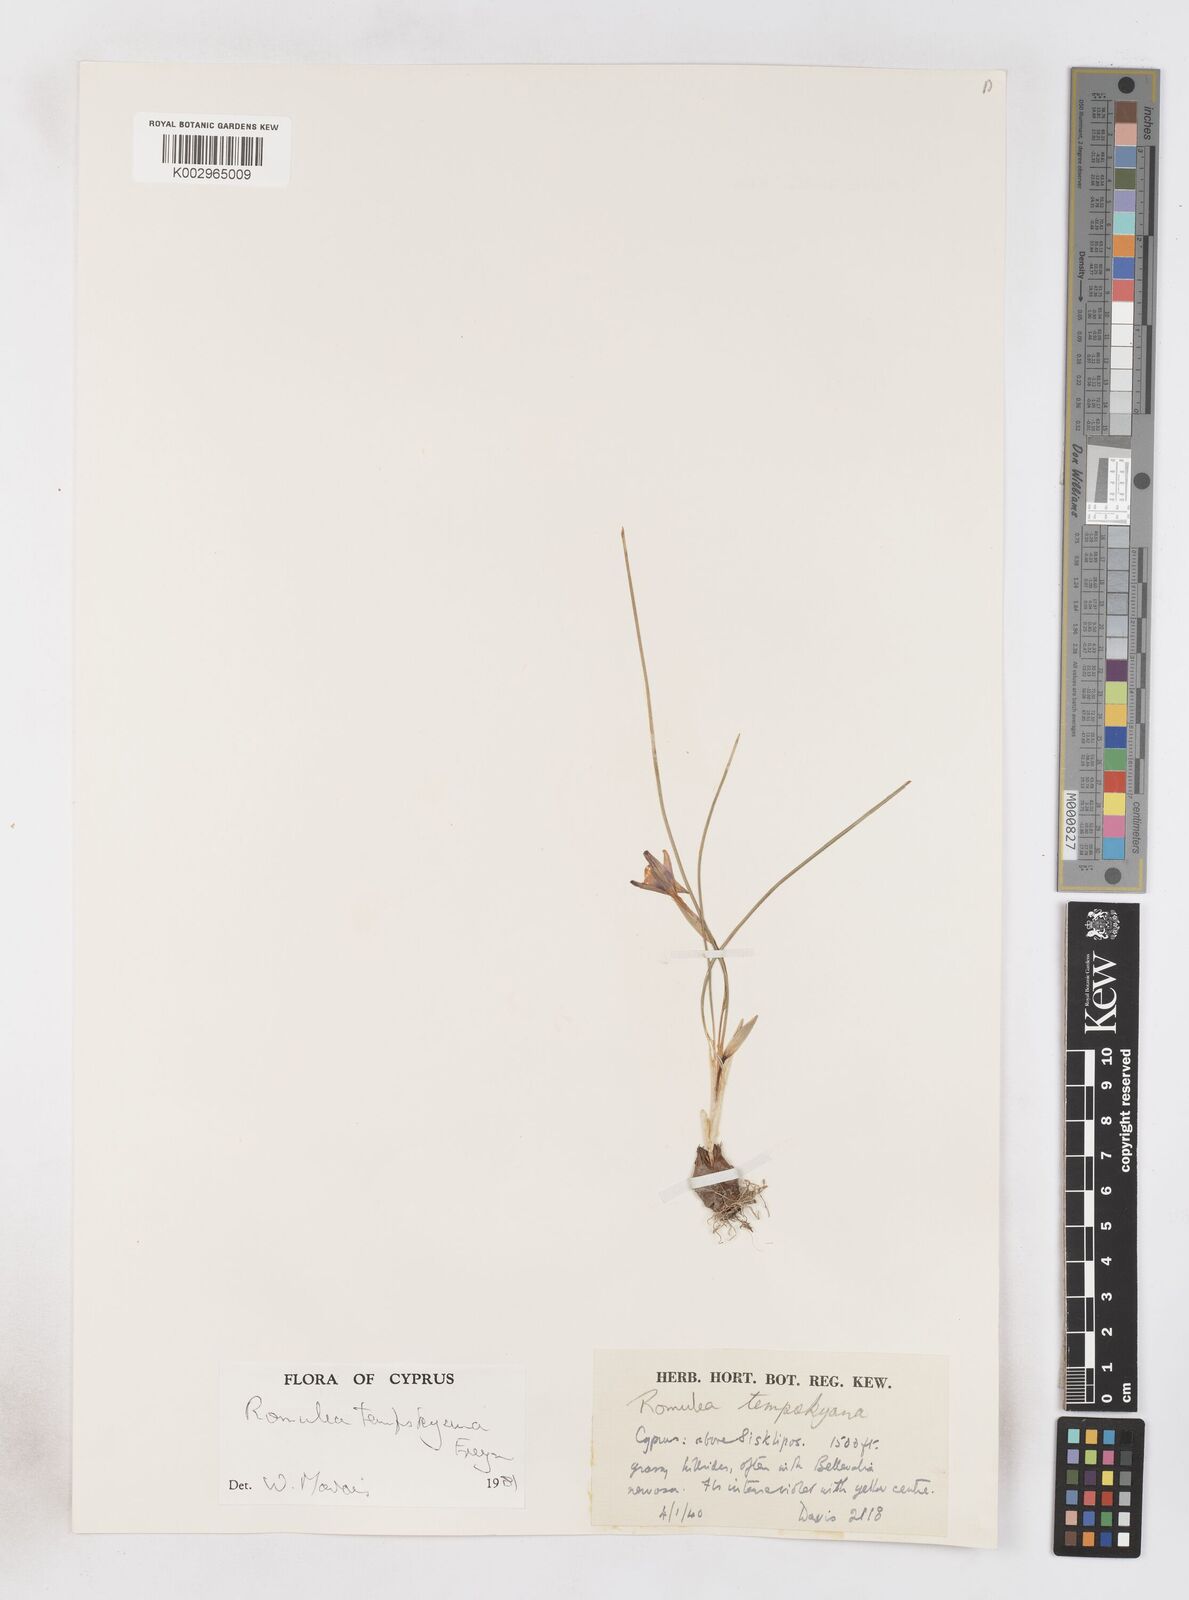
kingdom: Plantae
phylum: Tracheophyta
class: Liliopsida
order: Asparagales
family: Iridaceae
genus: Romulea
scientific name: Romulea tempskyana
